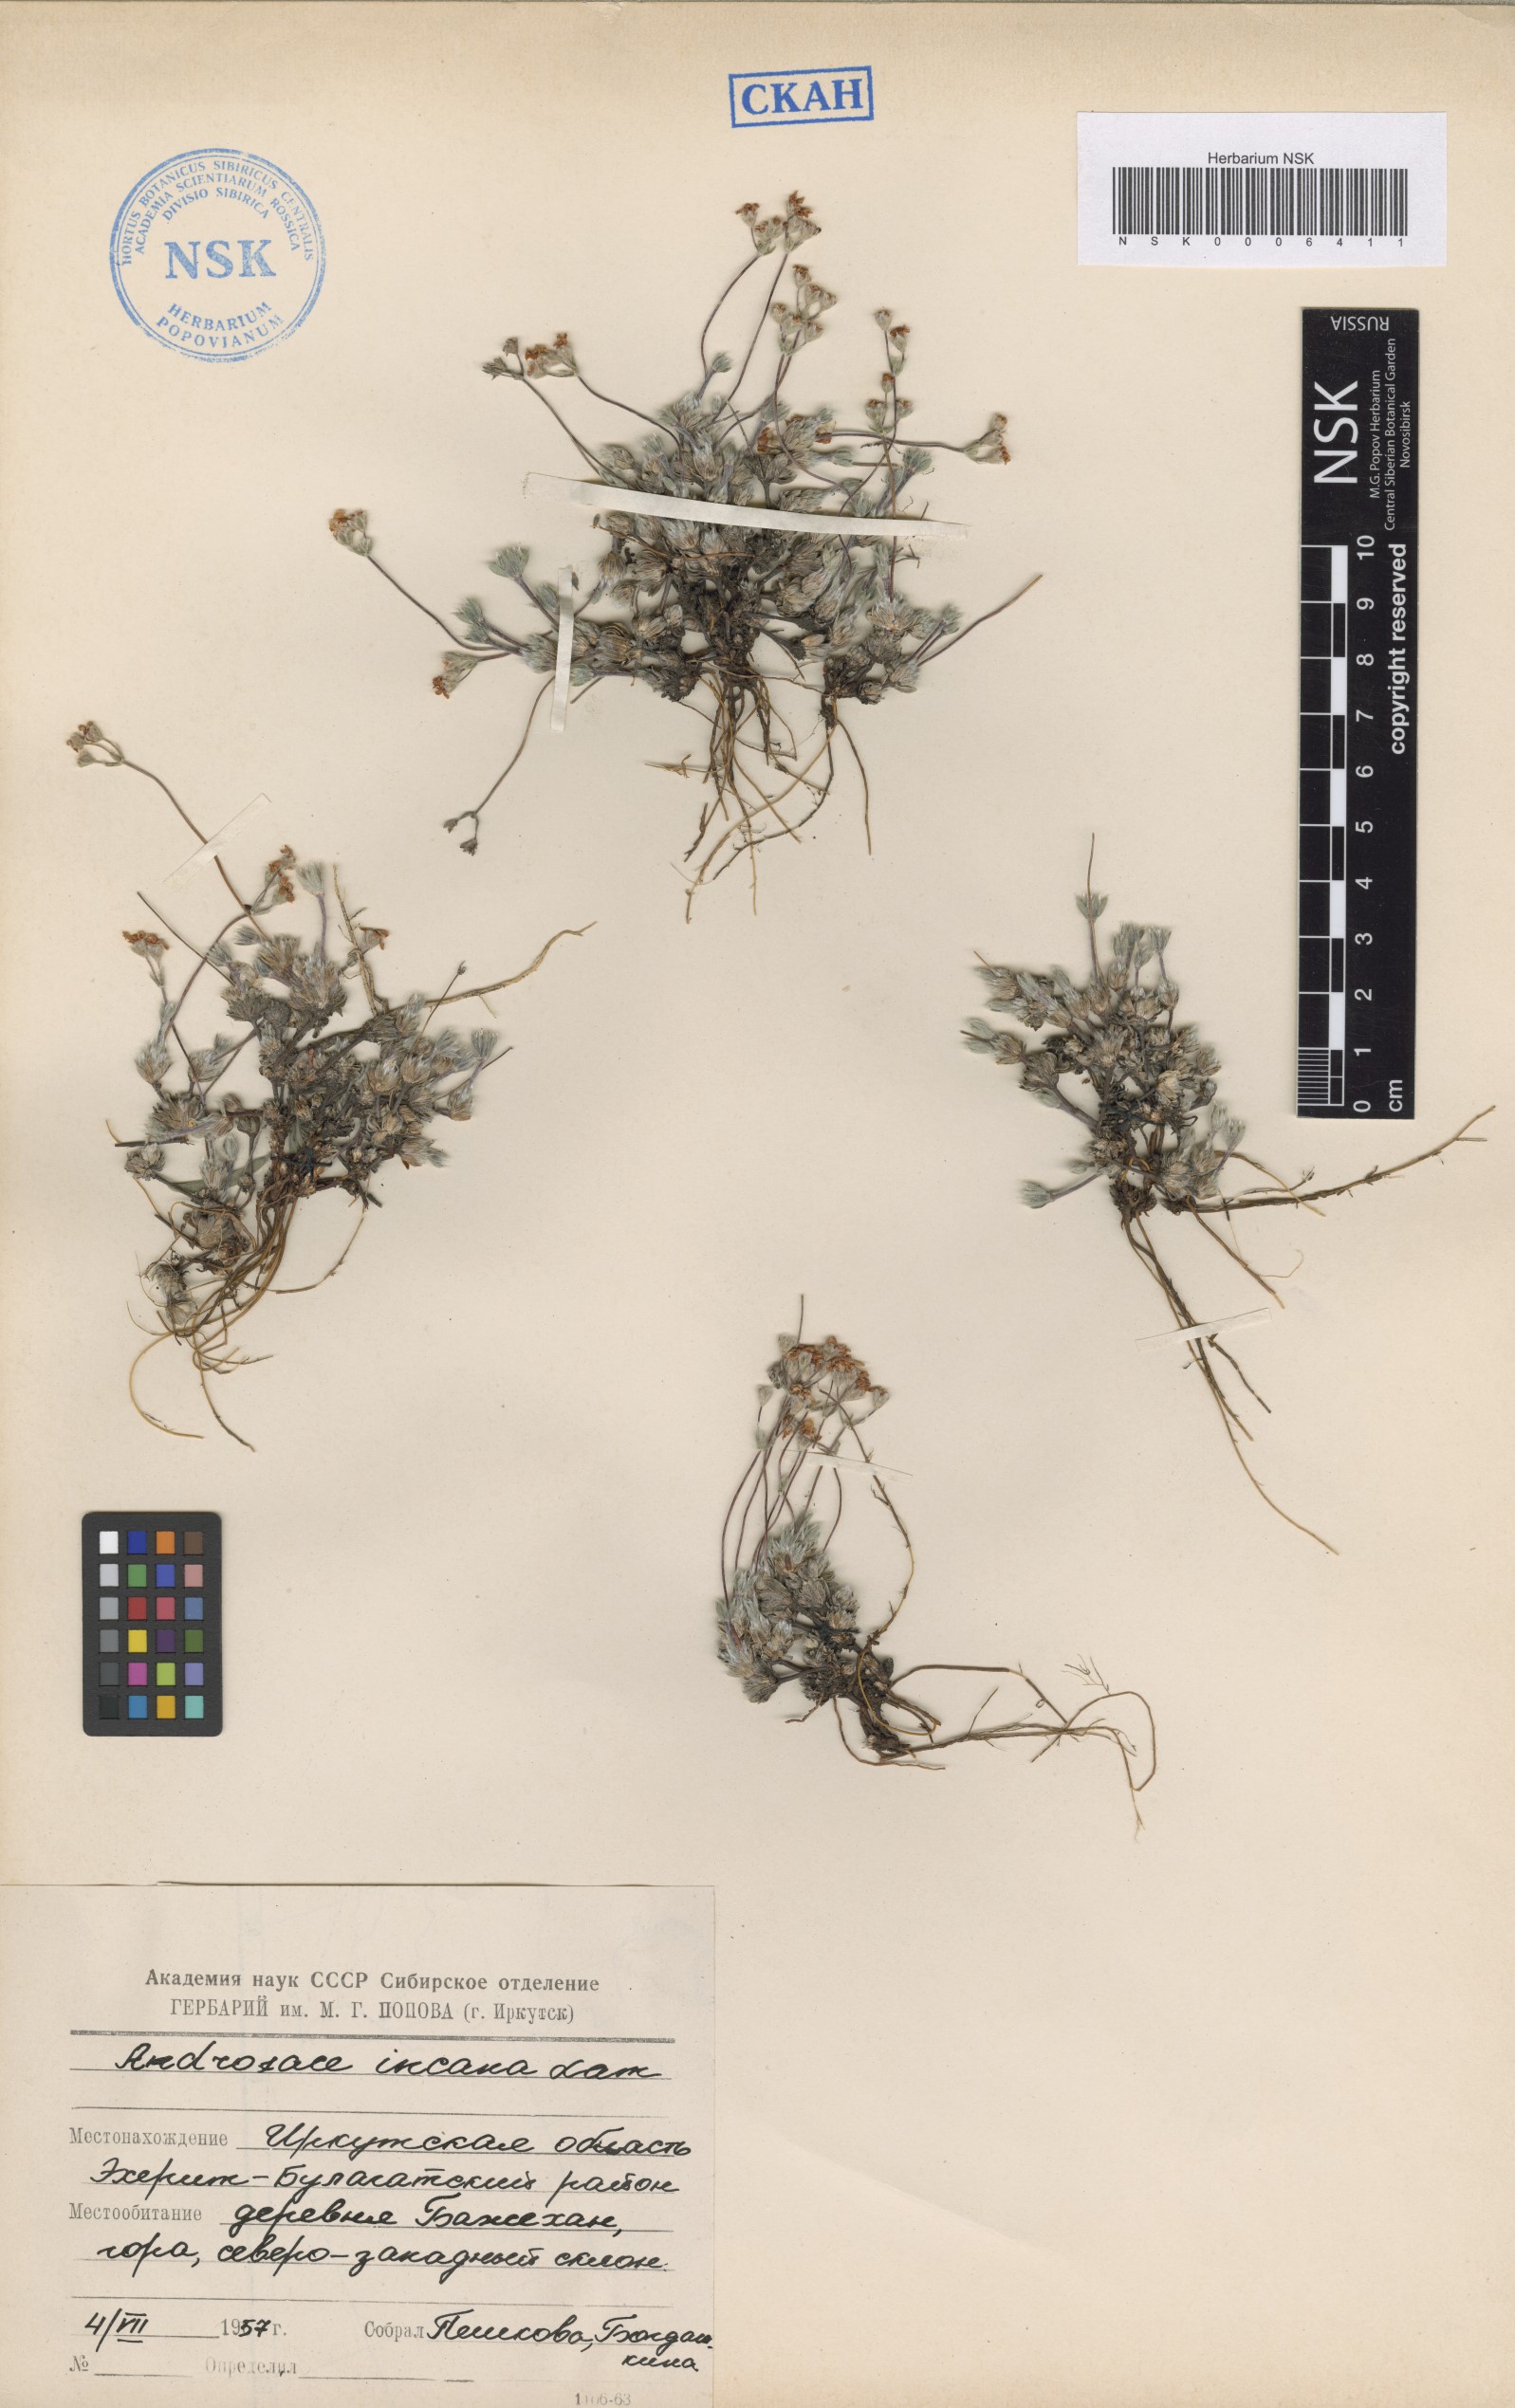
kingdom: Plantae
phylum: Tracheophyta
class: Magnoliopsida
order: Ericales
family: Primulaceae
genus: Androsace
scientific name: Androsace incana
